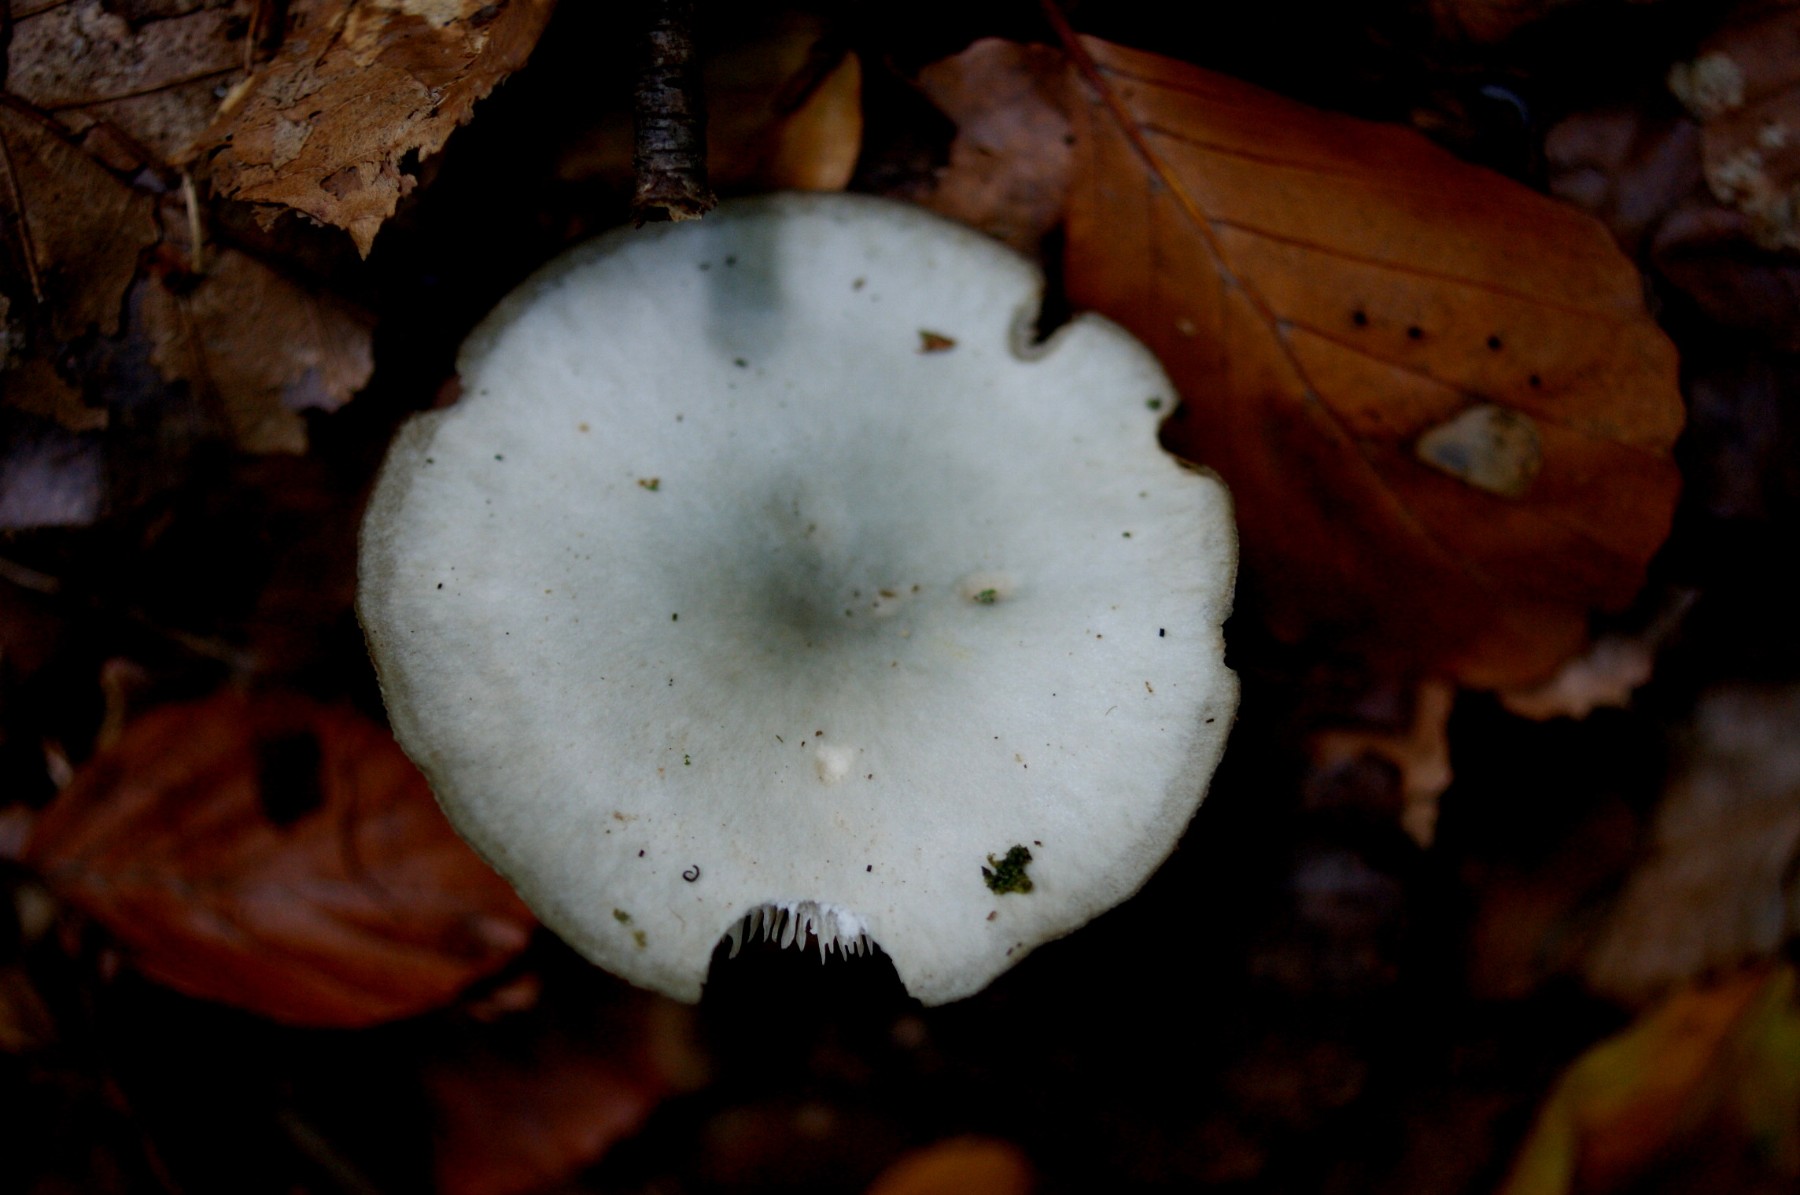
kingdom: Fungi
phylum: Basidiomycota
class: Agaricomycetes
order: Agaricales
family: Tricholomataceae
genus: Clitocybe
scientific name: Clitocybe odora
